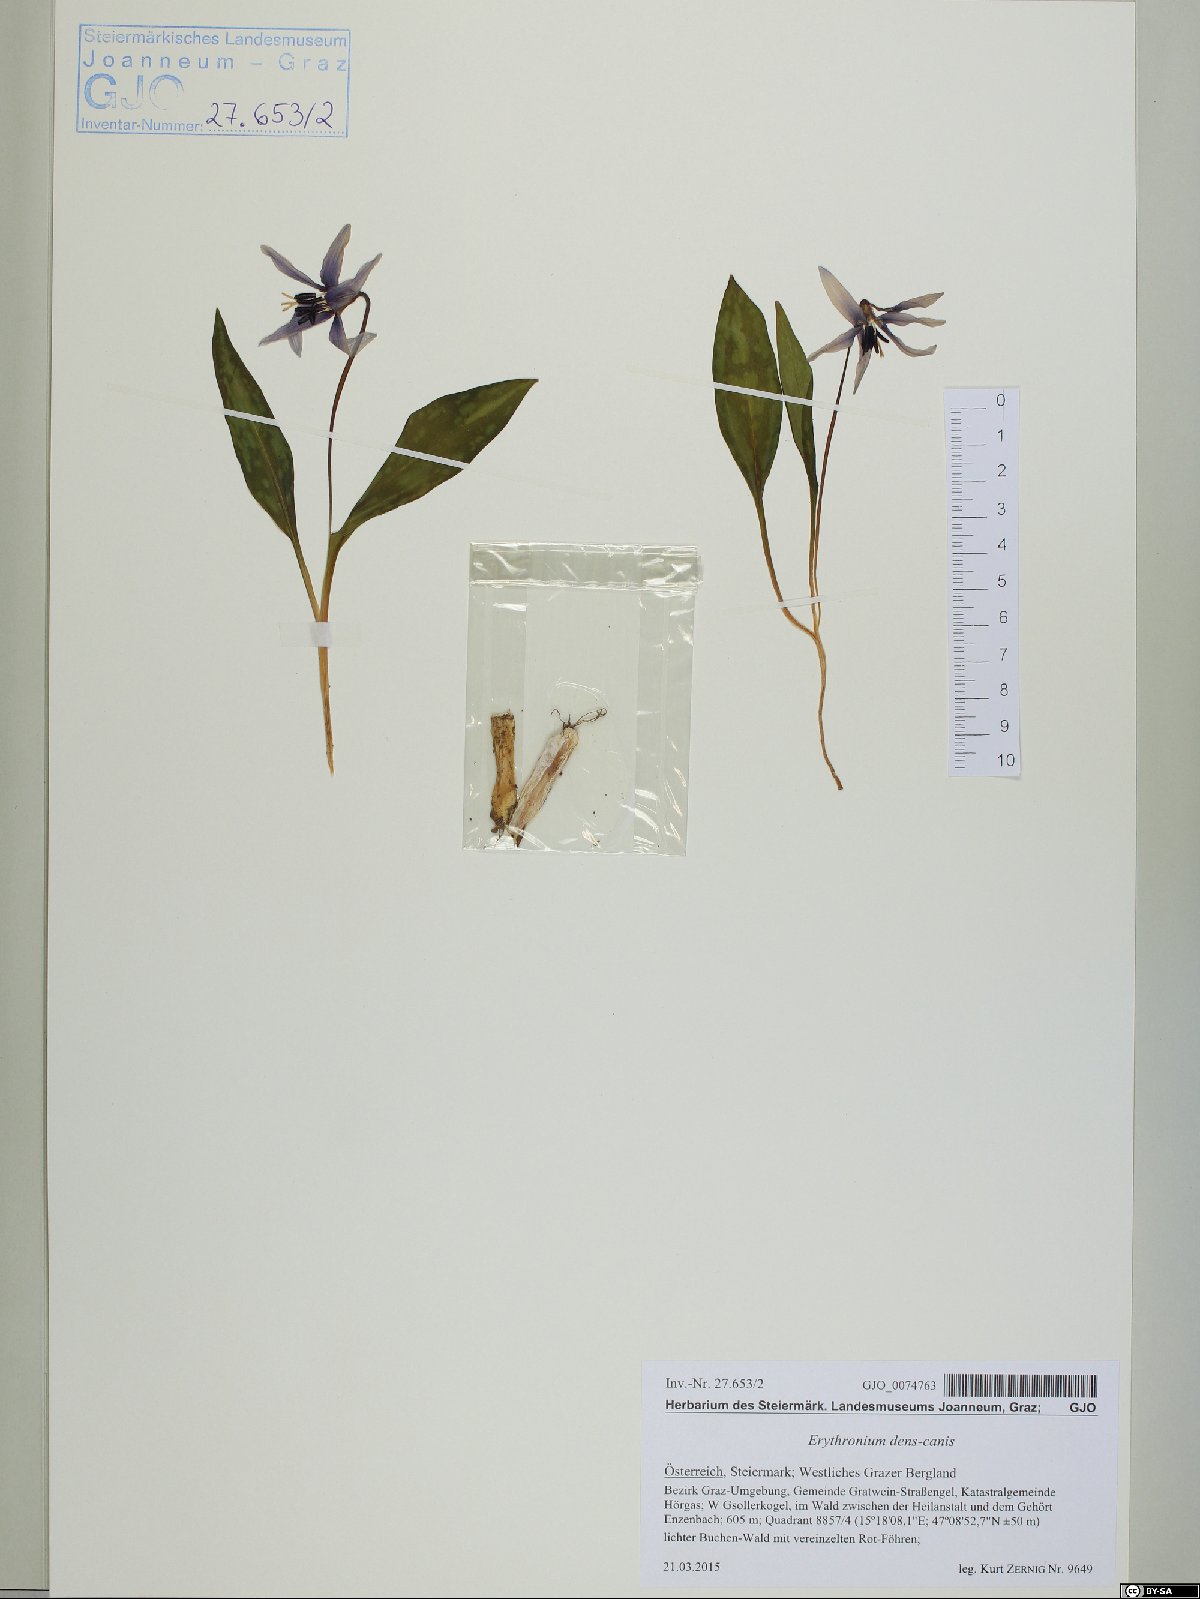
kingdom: Plantae
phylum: Tracheophyta
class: Liliopsida
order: Liliales
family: Liliaceae
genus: Erythronium
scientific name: Erythronium dens-canis
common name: Dog's-tooth-violet
